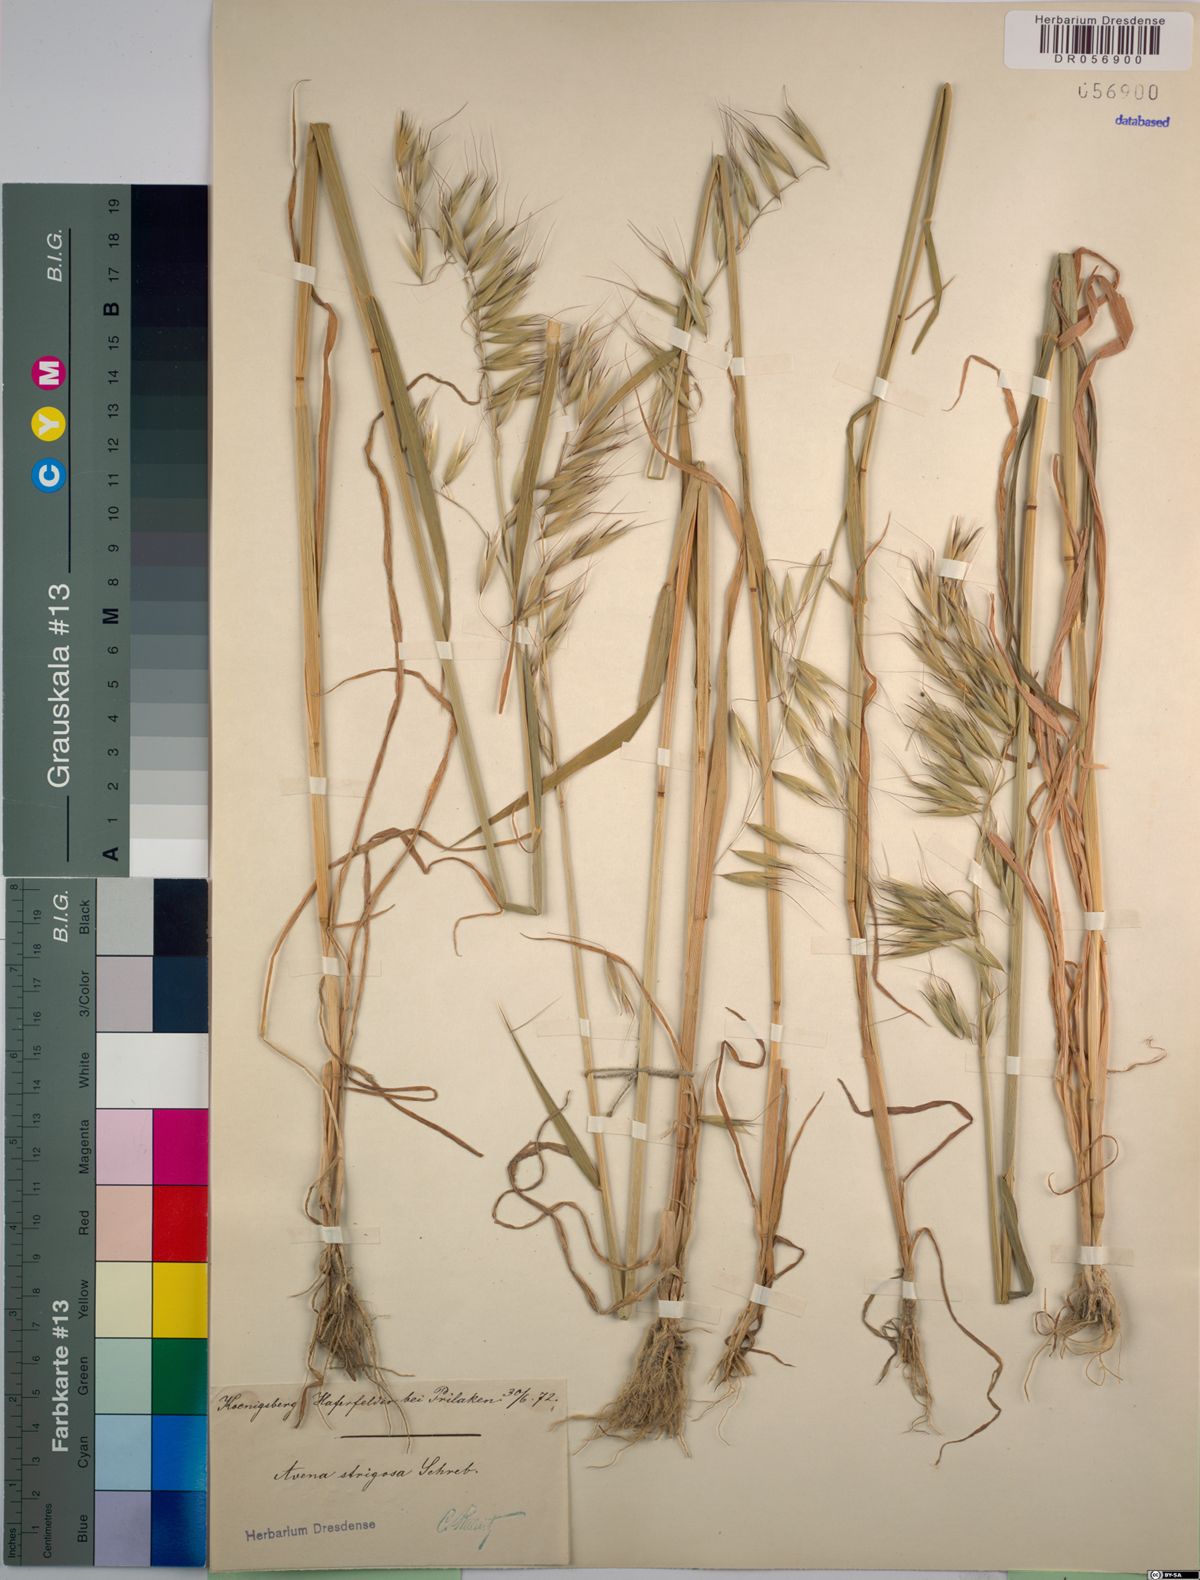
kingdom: Plantae
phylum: Tracheophyta
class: Liliopsida
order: Poales
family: Poaceae
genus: Avena
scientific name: Avena strigosa
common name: Bristle oat
